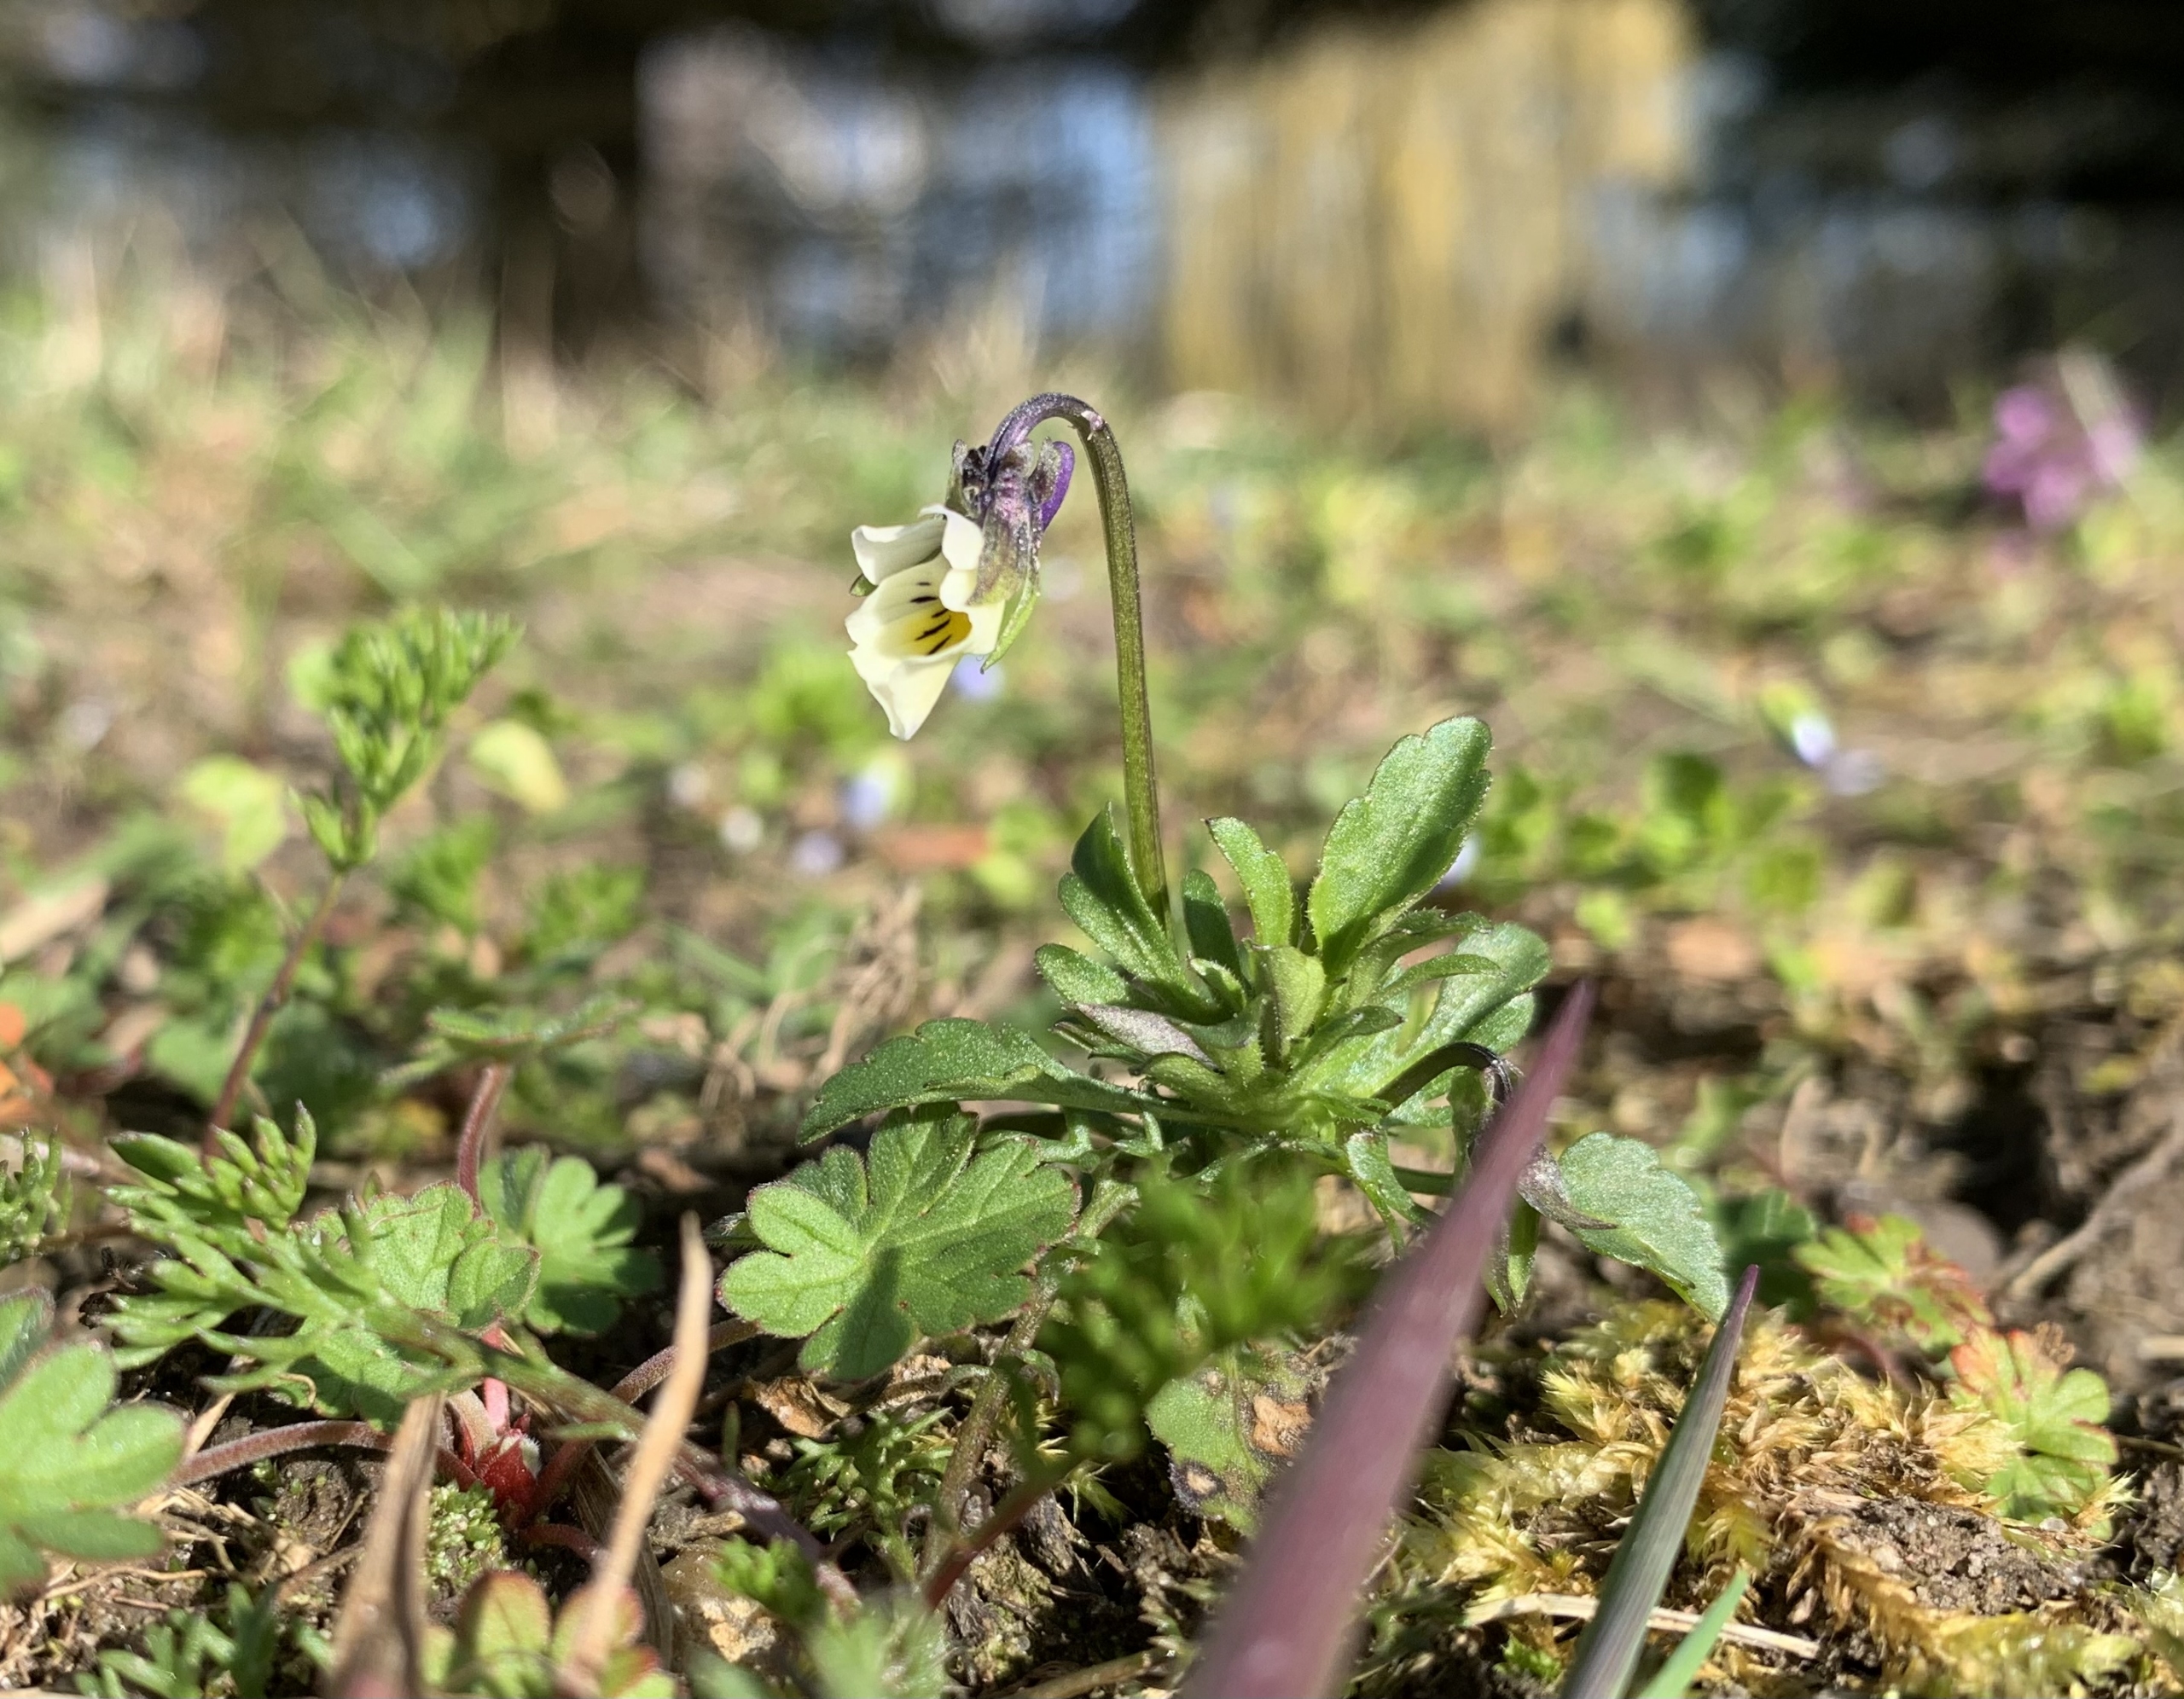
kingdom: Plantae
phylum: Tracheophyta
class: Magnoliopsida
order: Malpighiales
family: Violaceae
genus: Viola
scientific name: Viola arvensis
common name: Ager-stedmoderblomst
